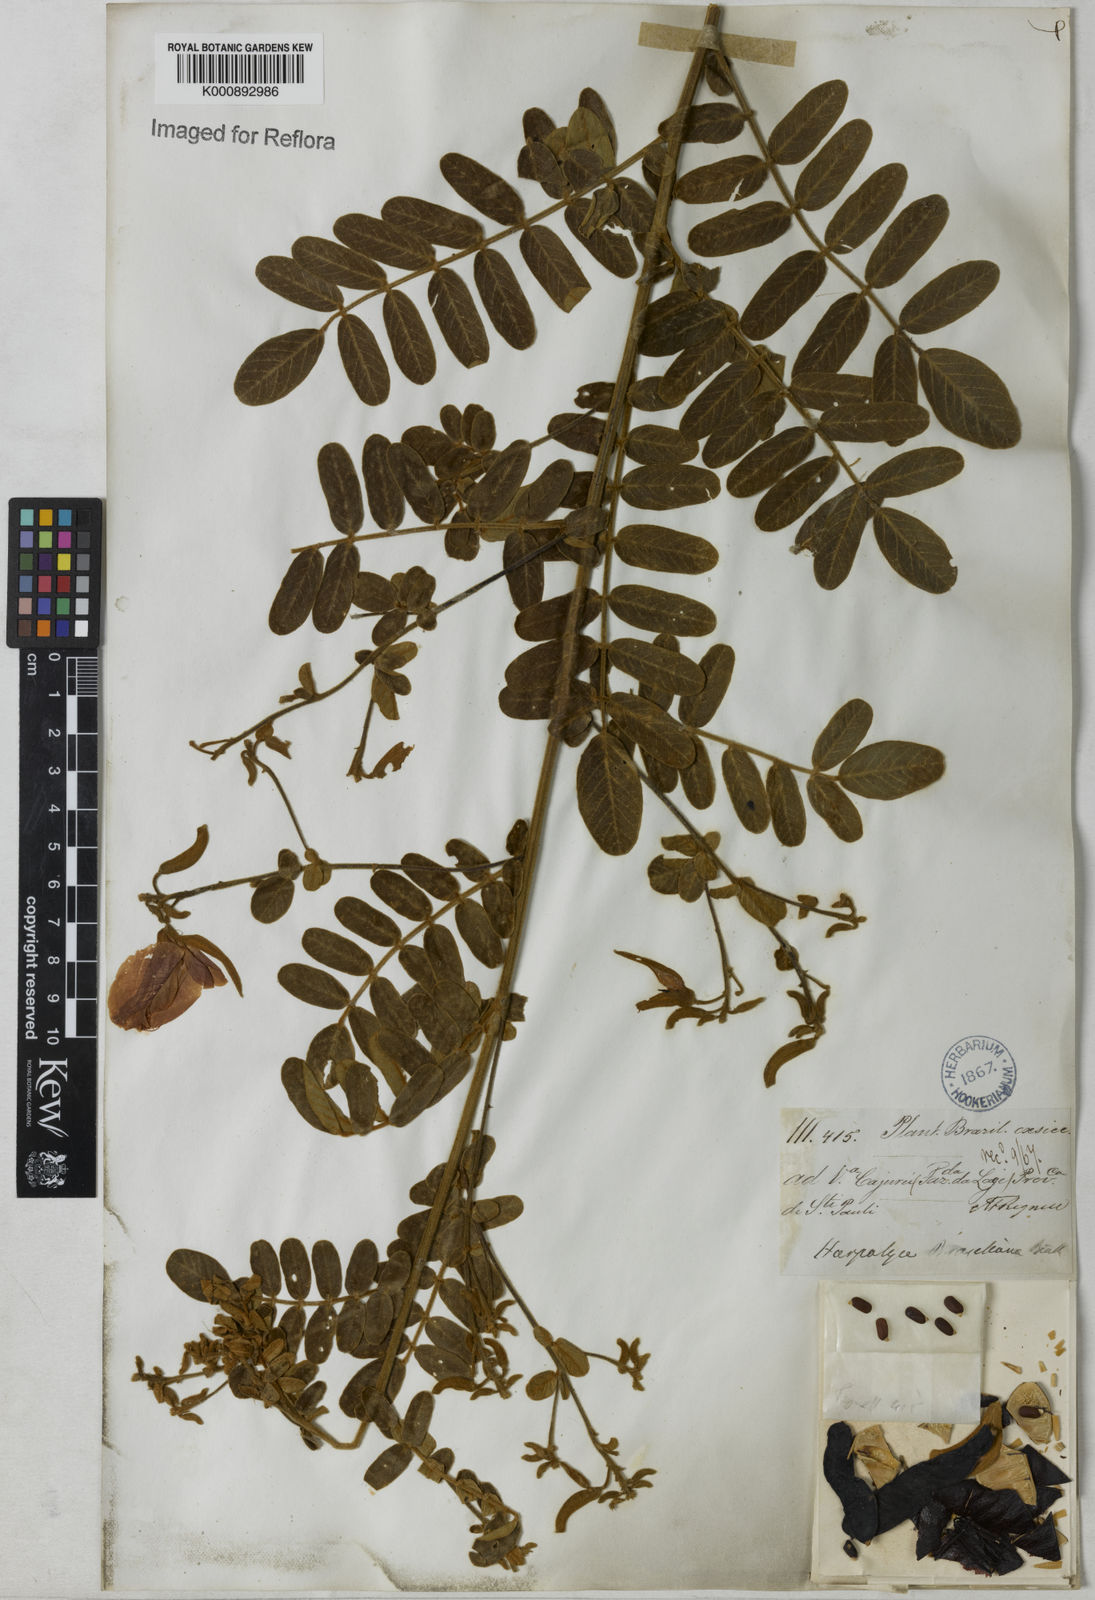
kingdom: Plantae
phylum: Tracheophyta
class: Magnoliopsida
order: Fabales
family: Fabaceae
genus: Harpalyce
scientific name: Harpalyce brasiliana
